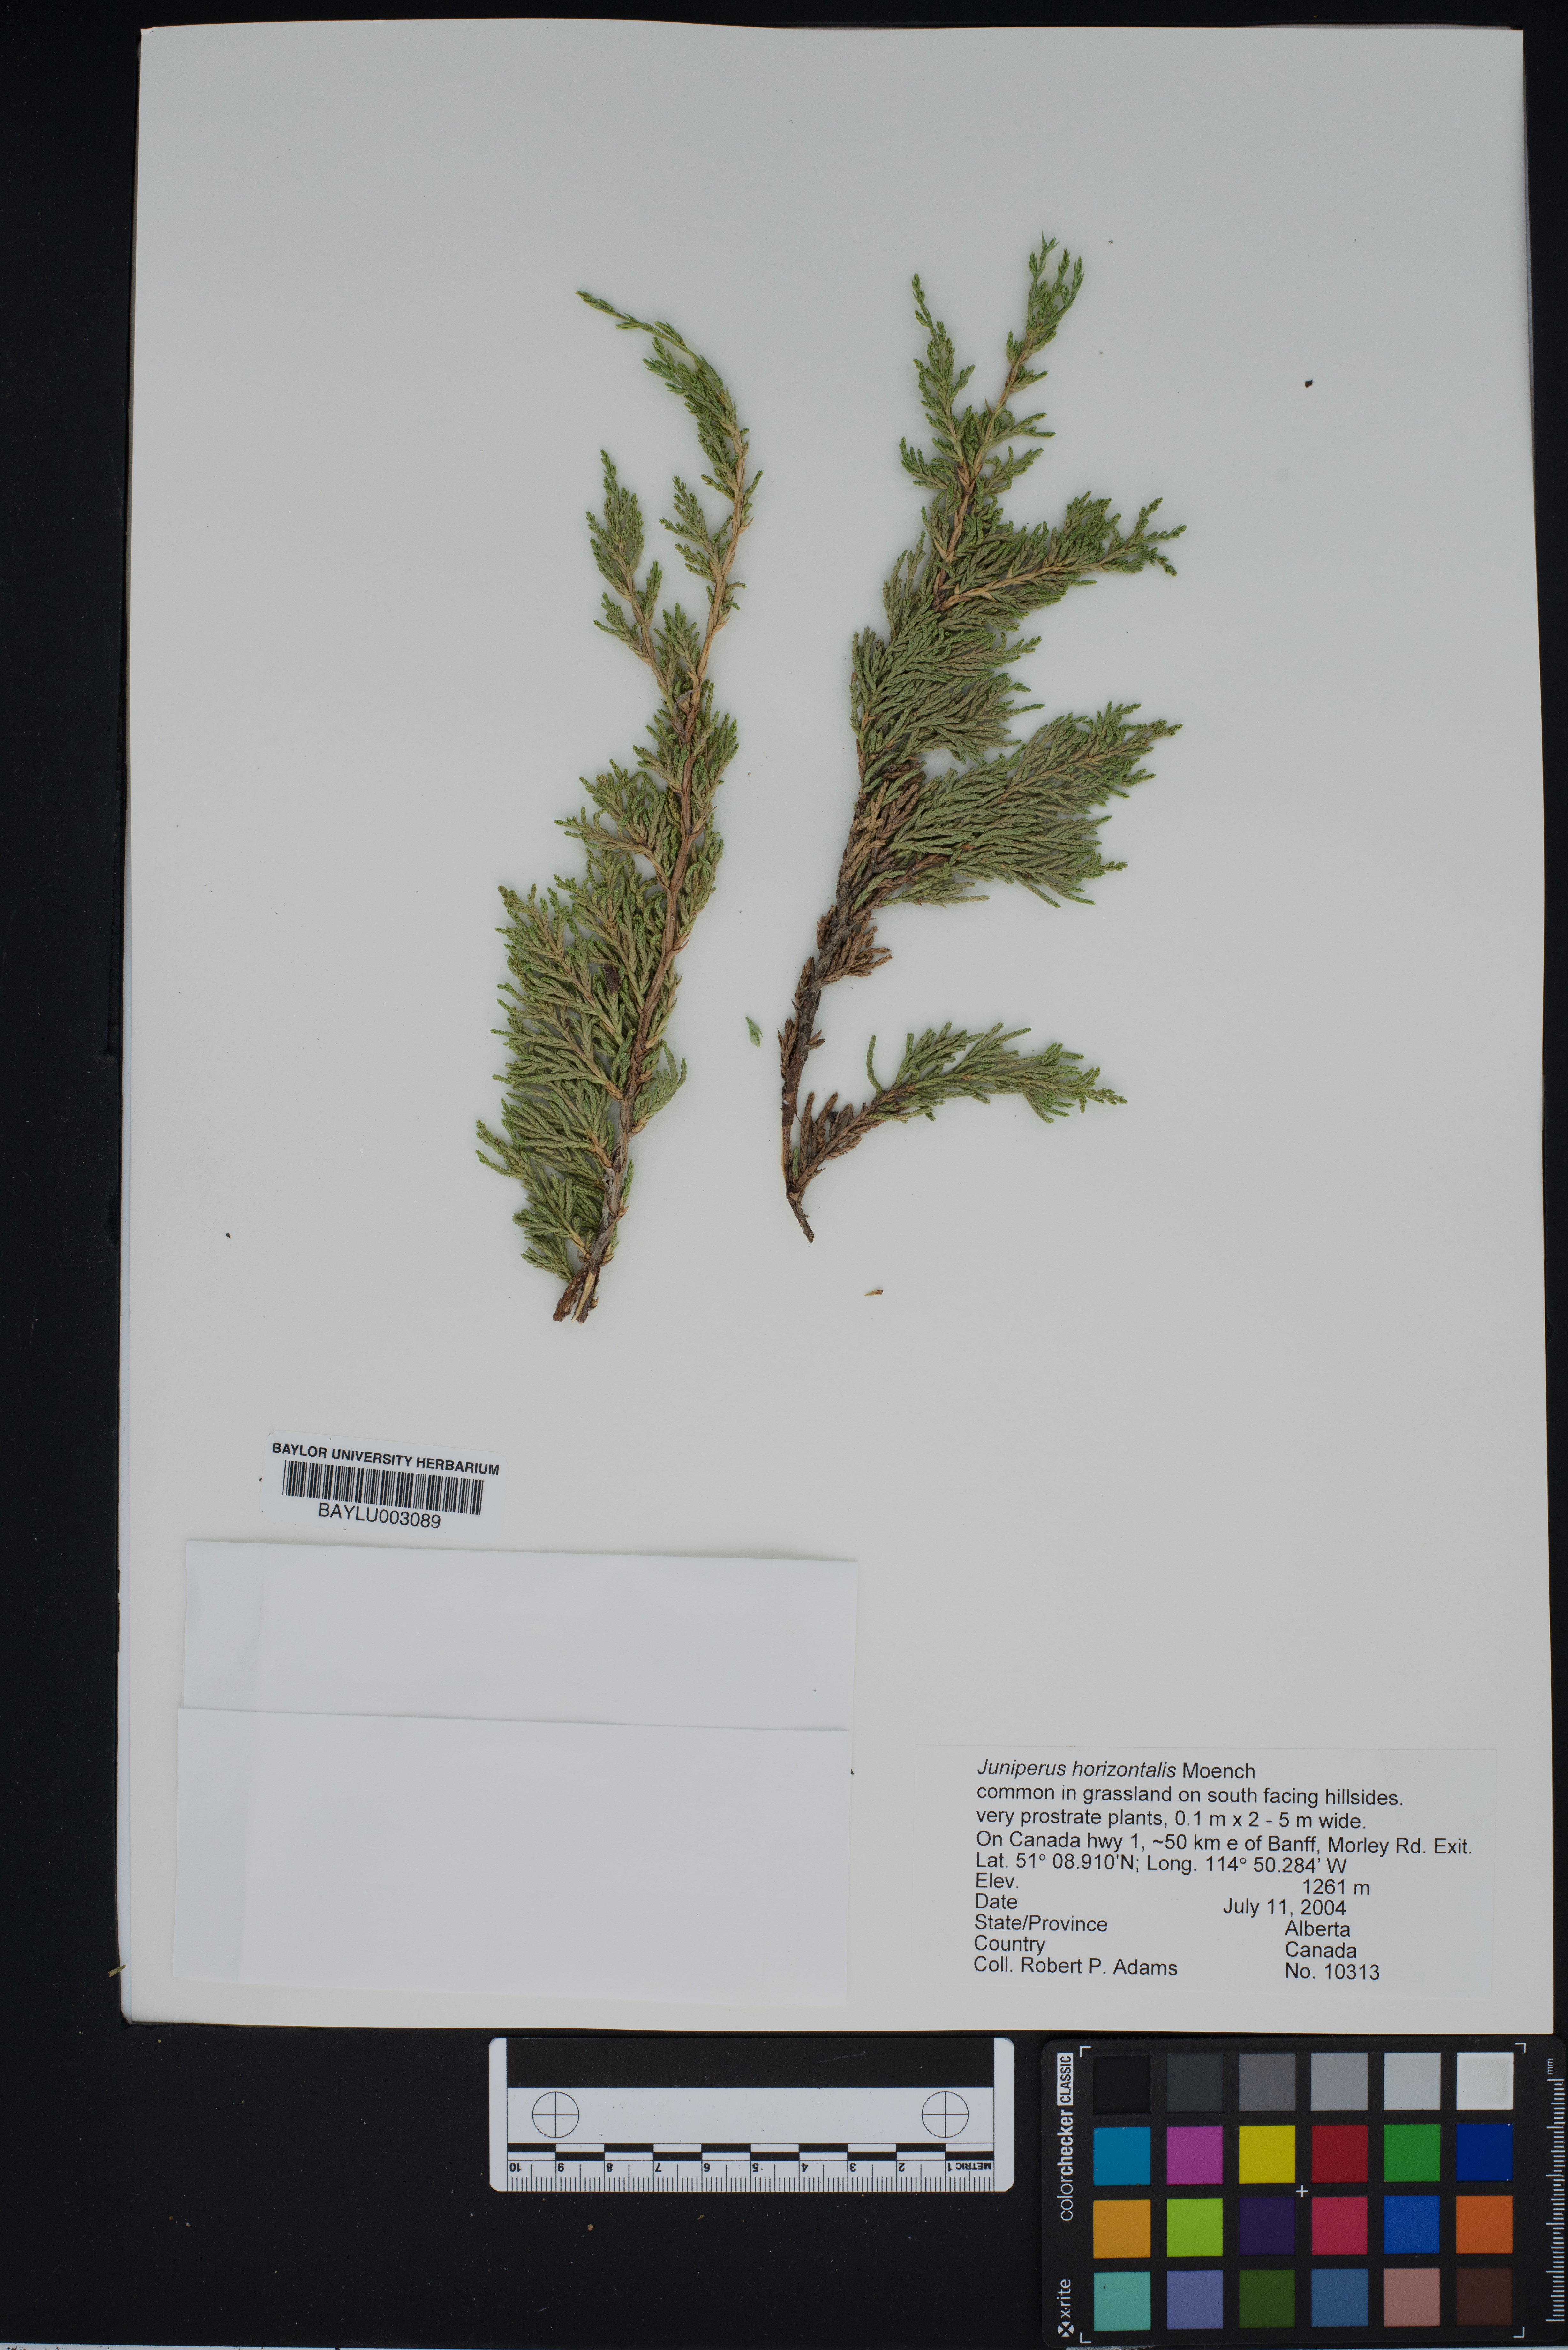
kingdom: Plantae
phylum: Tracheophyta
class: Pinopsida
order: Pinales
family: Cupressaceae
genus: Juniperus
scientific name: Juniperus horizontalis
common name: Creeping juniper
